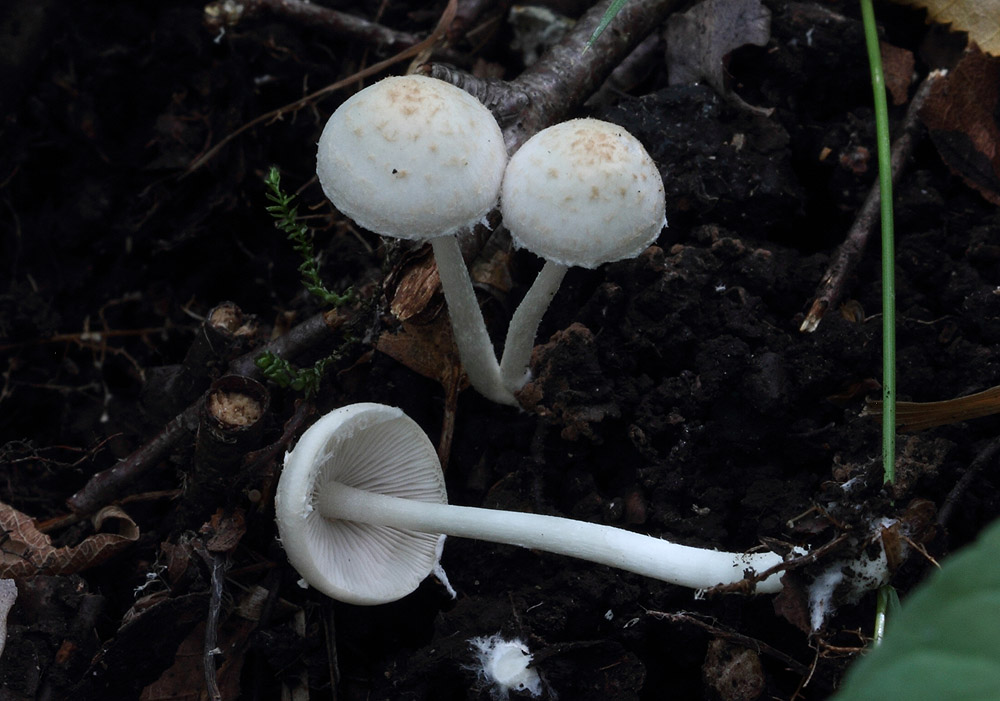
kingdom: Fungi
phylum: Basidiomycota
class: Agaricomycetes
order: Agaricales
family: Psathyrellaceae
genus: Candolleomyces
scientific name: Candolleomyces candolleanus
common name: Candolles mørkhat
